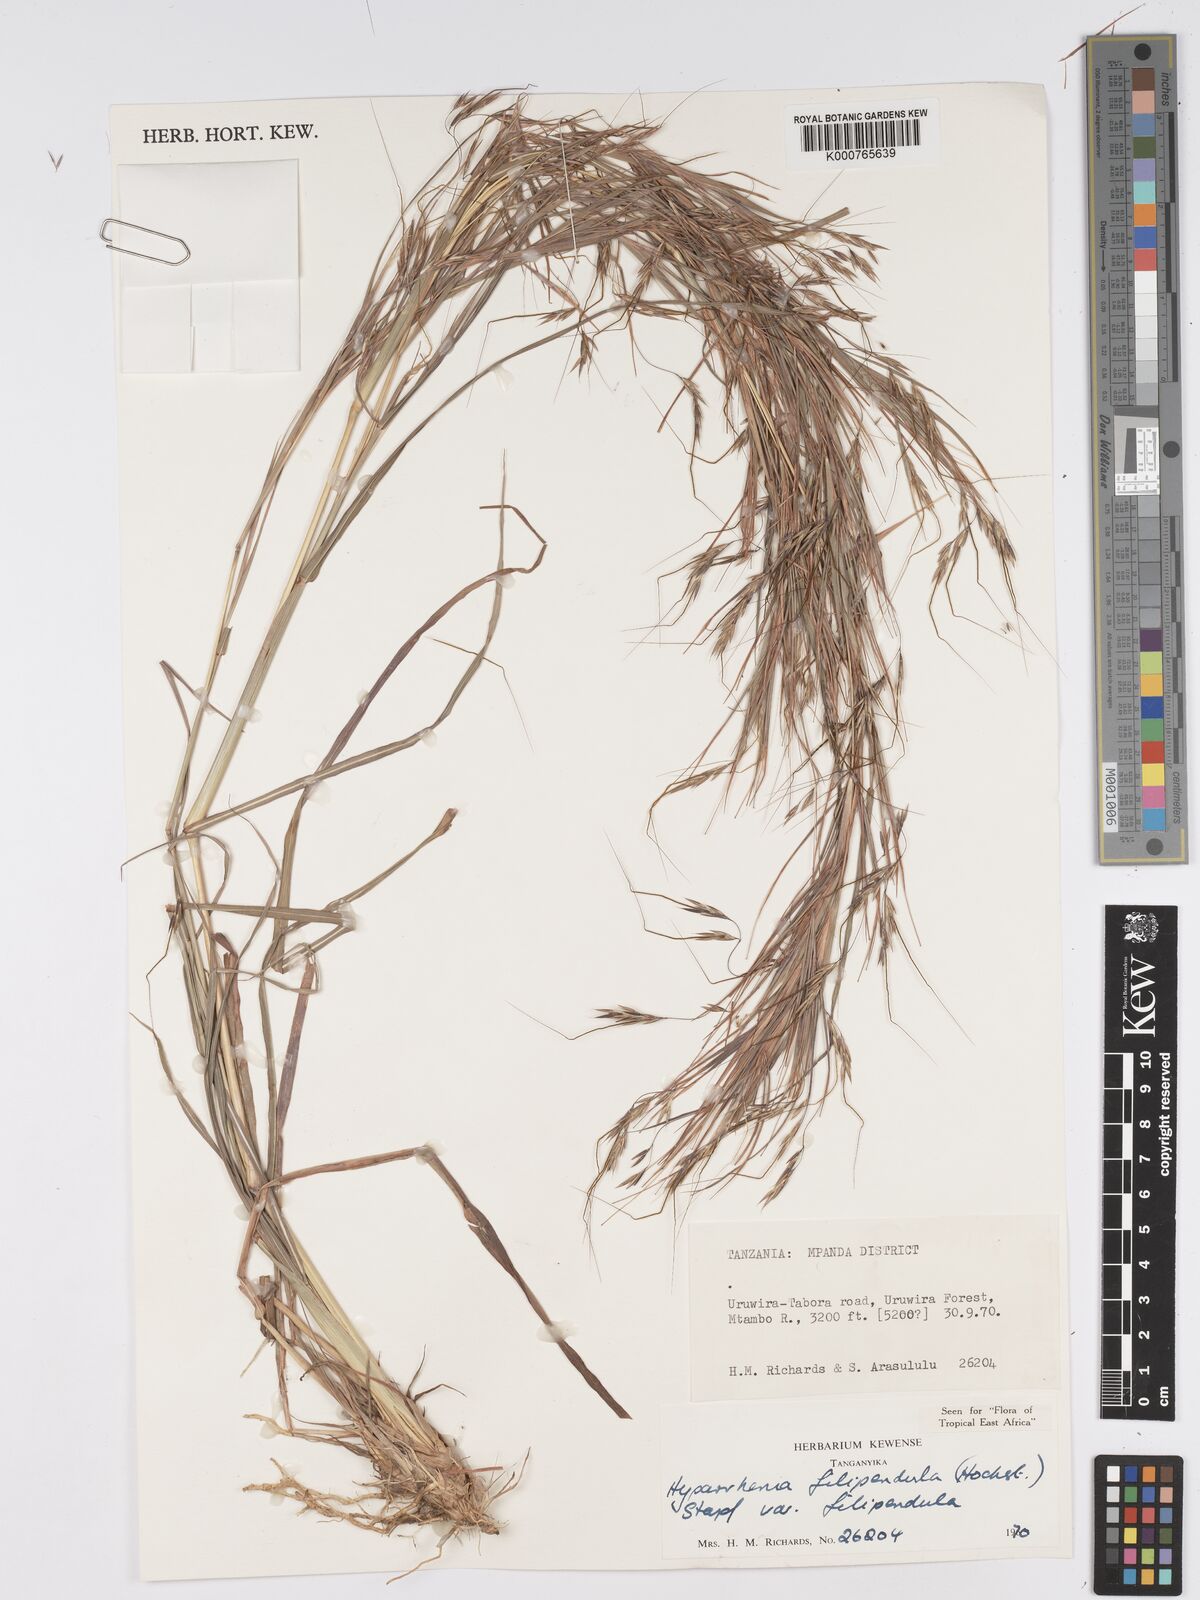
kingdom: Plantae
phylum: Tracheophyta
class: Liliopsida
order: Poales
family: Poaceae
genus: Hyparrhenia
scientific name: Hyparrhenia filipendula
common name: Tambookie grass
